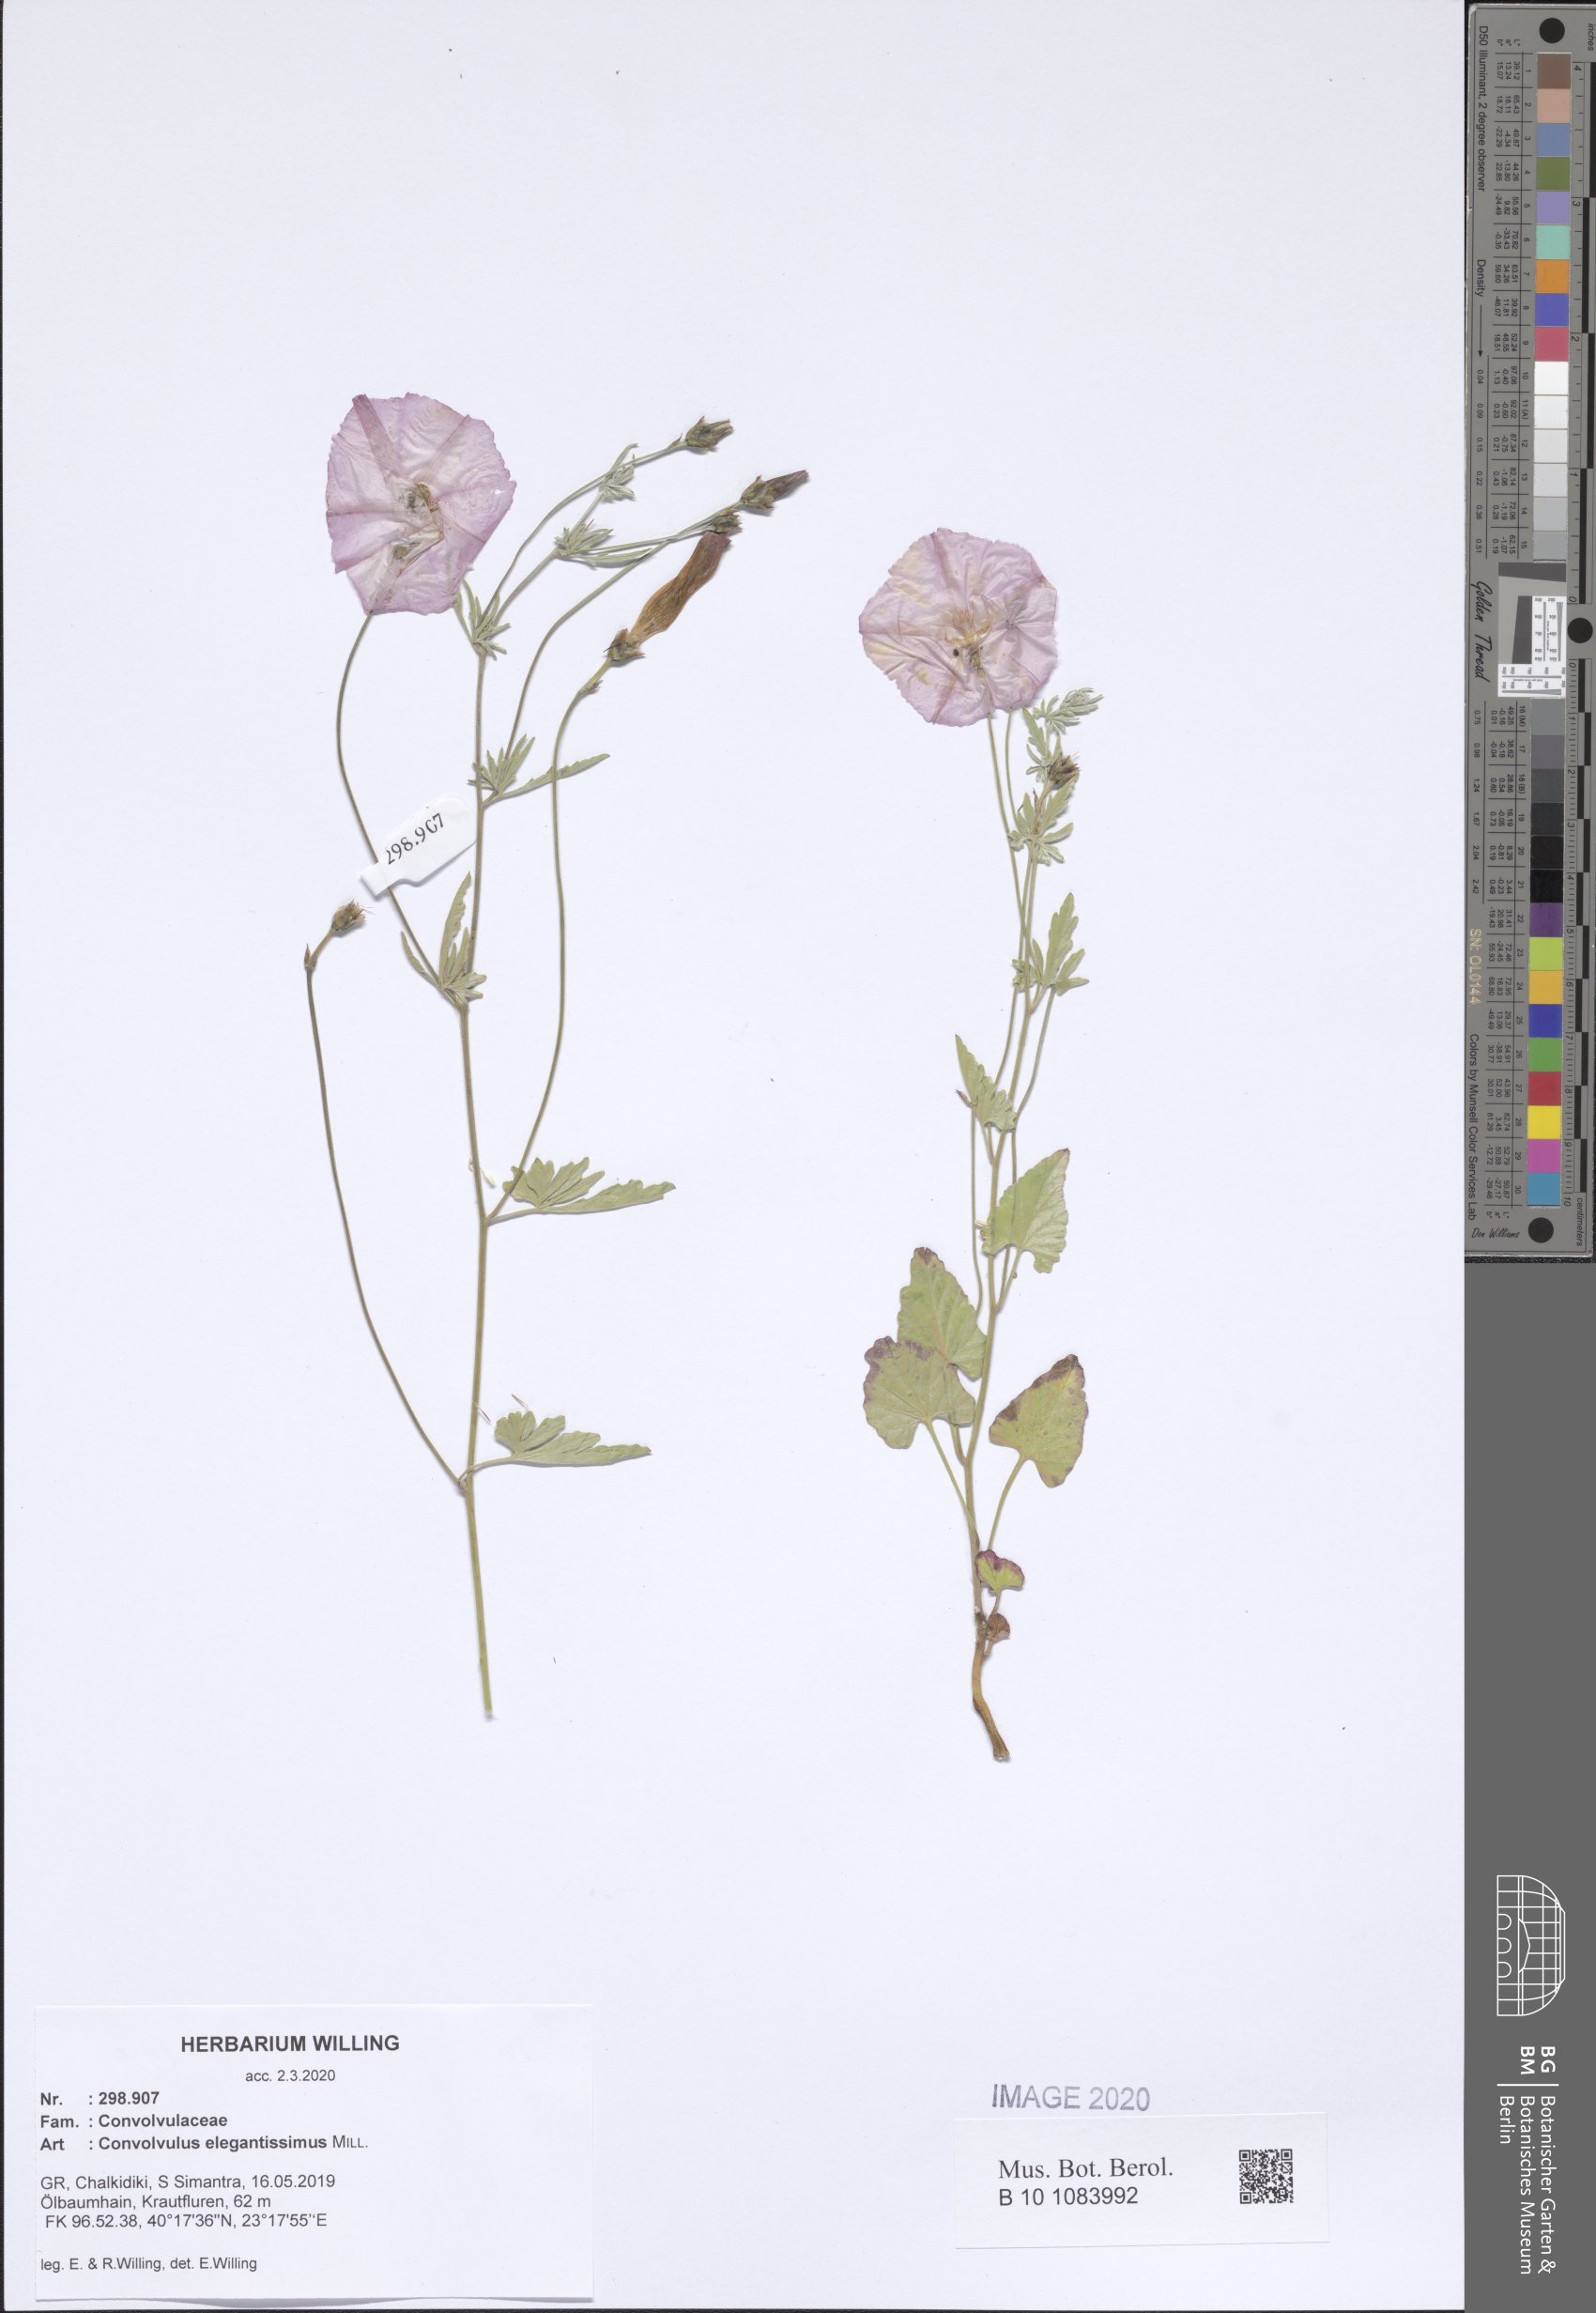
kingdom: Plantae
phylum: Tracheophyta
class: Magnoliopsida
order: Solanales
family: Convolvulaceae
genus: Convolvulus
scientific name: Convolvulus elegantissimus
